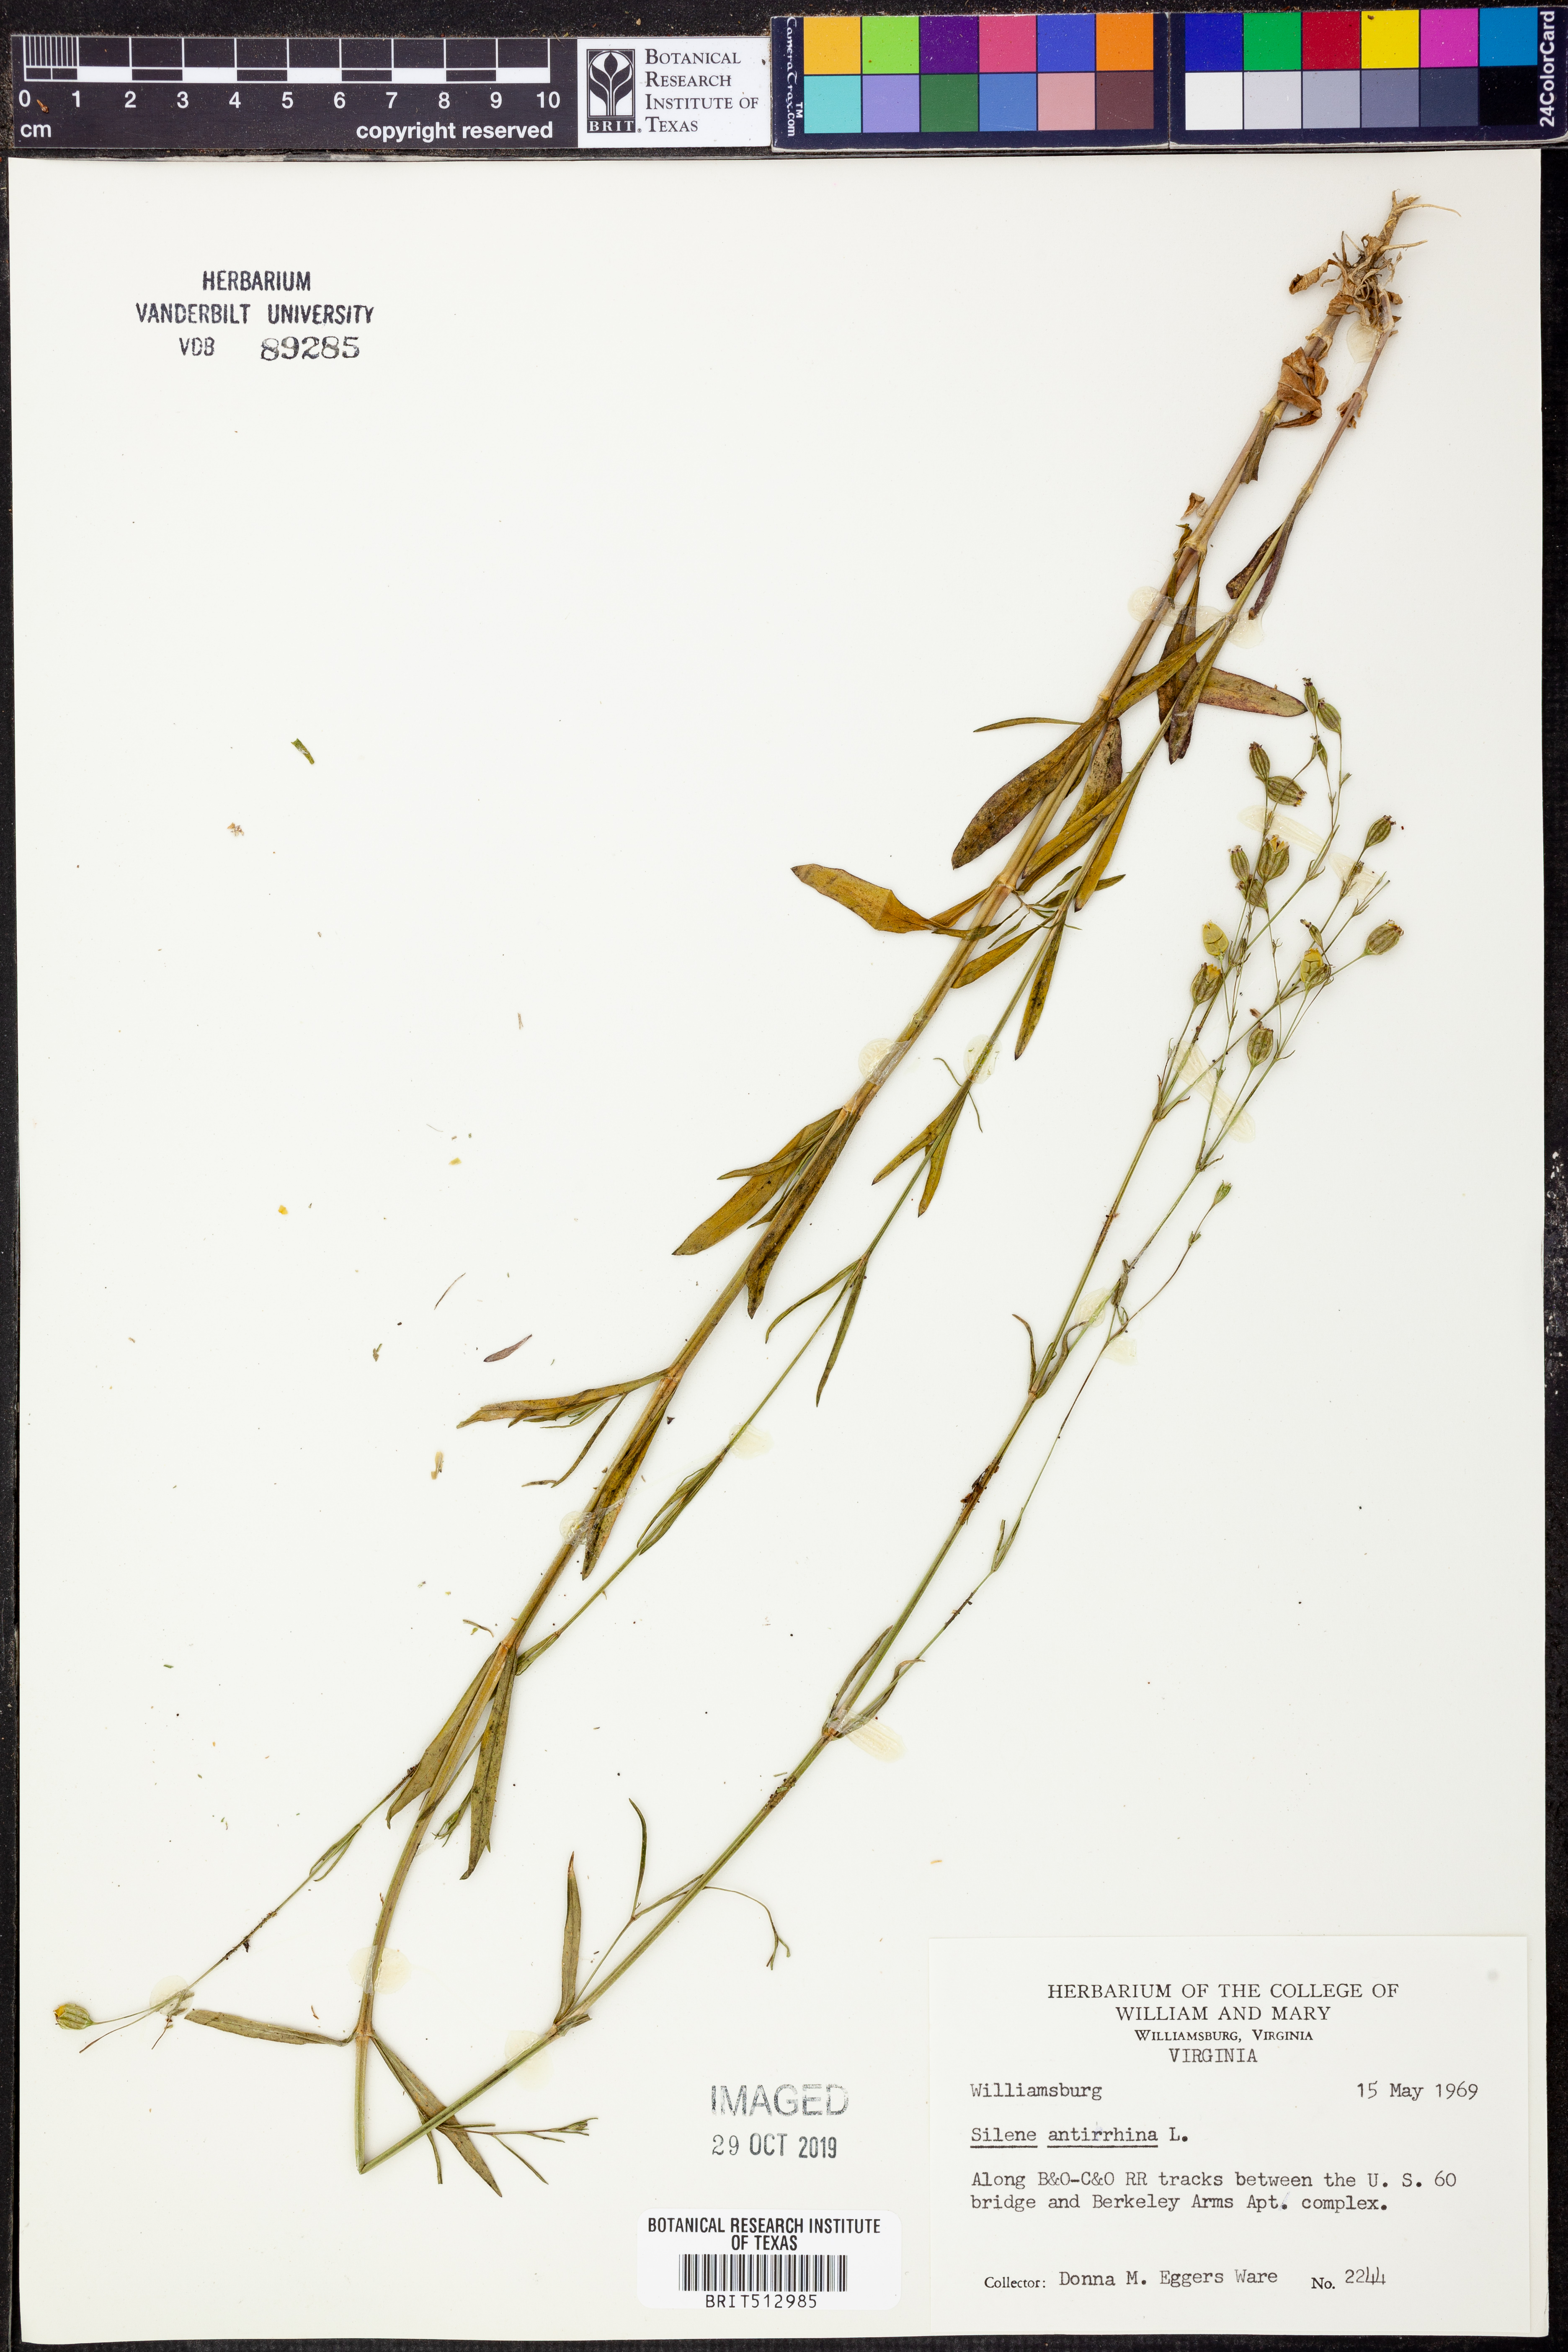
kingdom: Plantae
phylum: Tracheophyta
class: Magnoliopsida
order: Caryophyllales
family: Caryophyllaceae
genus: Silene
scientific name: Silene antirrhina
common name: Sleepy catchfly
